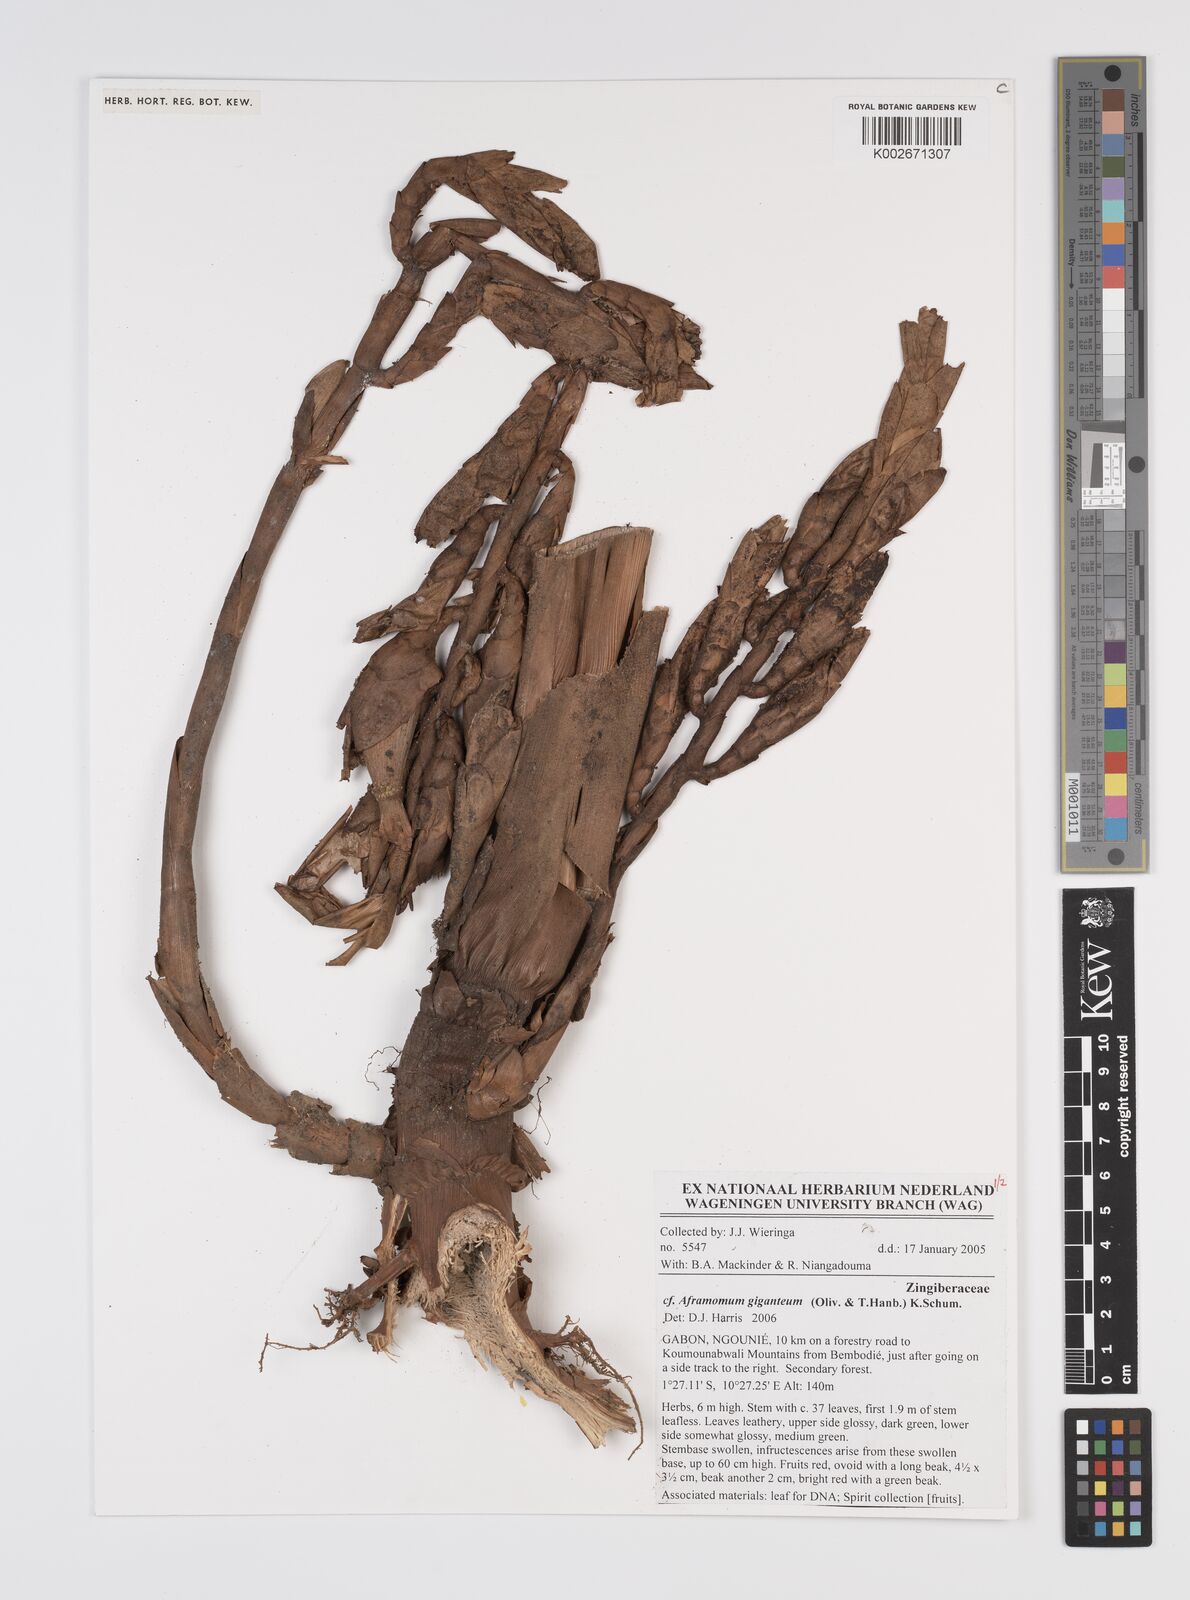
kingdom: Plantae
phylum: Tracheophyta
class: Liliopsida
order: Zingiberales
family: Zingiberaceae
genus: Aframomum
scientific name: Aframomum giganteum
